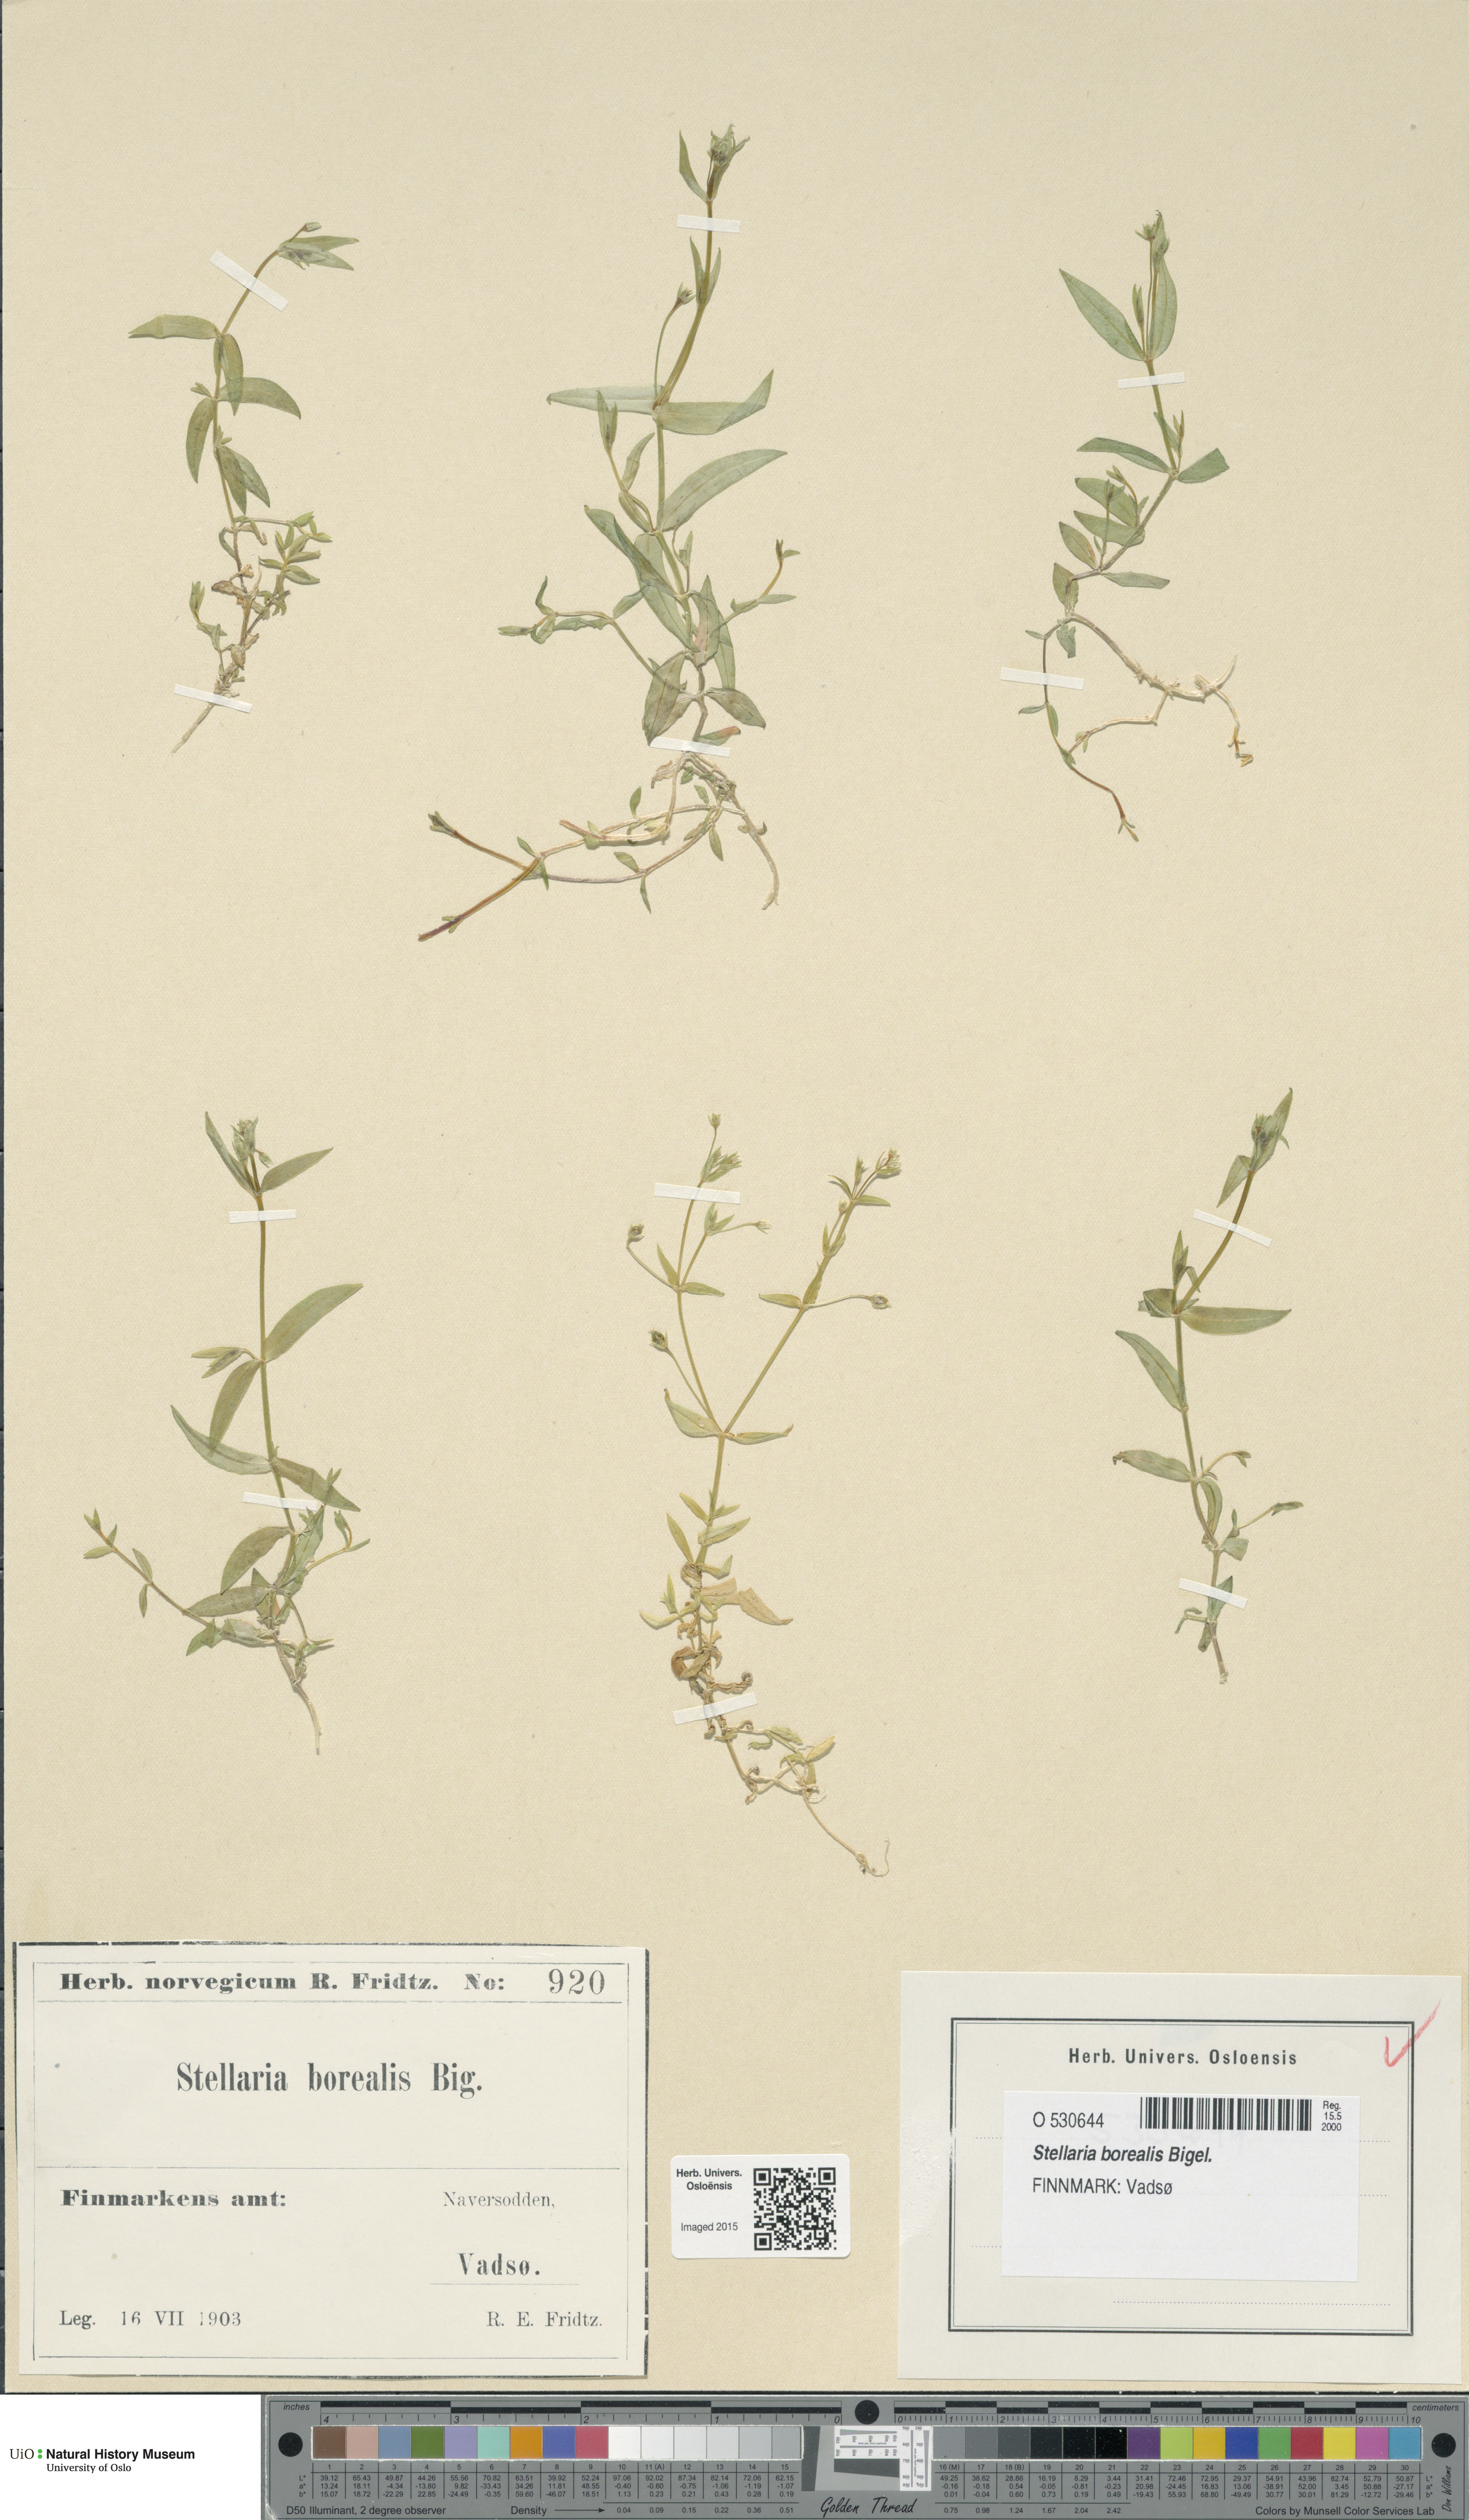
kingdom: Plantae
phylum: Tracheophyta
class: Magnoliopsida
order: Caryophyllales
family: Caryophyllaceae
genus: Stellaria
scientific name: Stellaria borealis
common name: Boreal starwort
